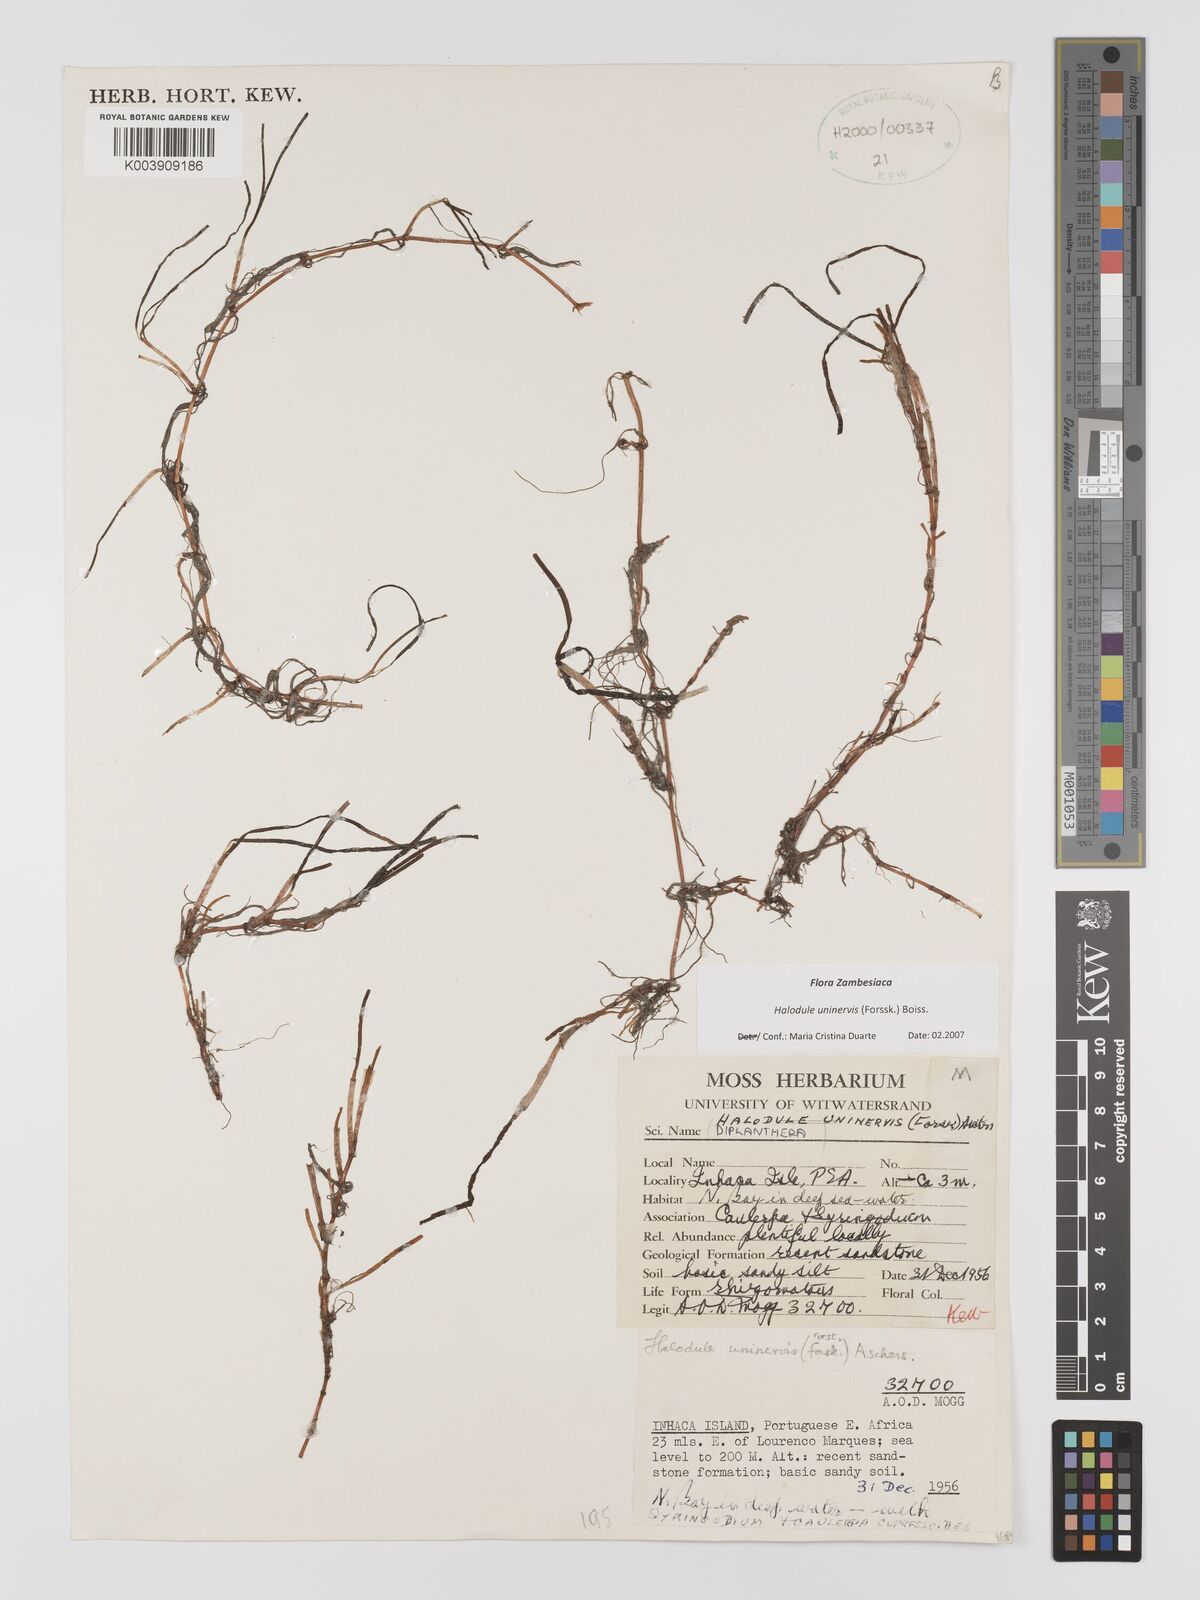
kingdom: Plantae
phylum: Tracheophyta
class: Liliopsida
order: Alismatales
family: Cymodoceaceae
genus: Halodule
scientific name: Halodule uninervis
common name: Narrowleaf seagrass
